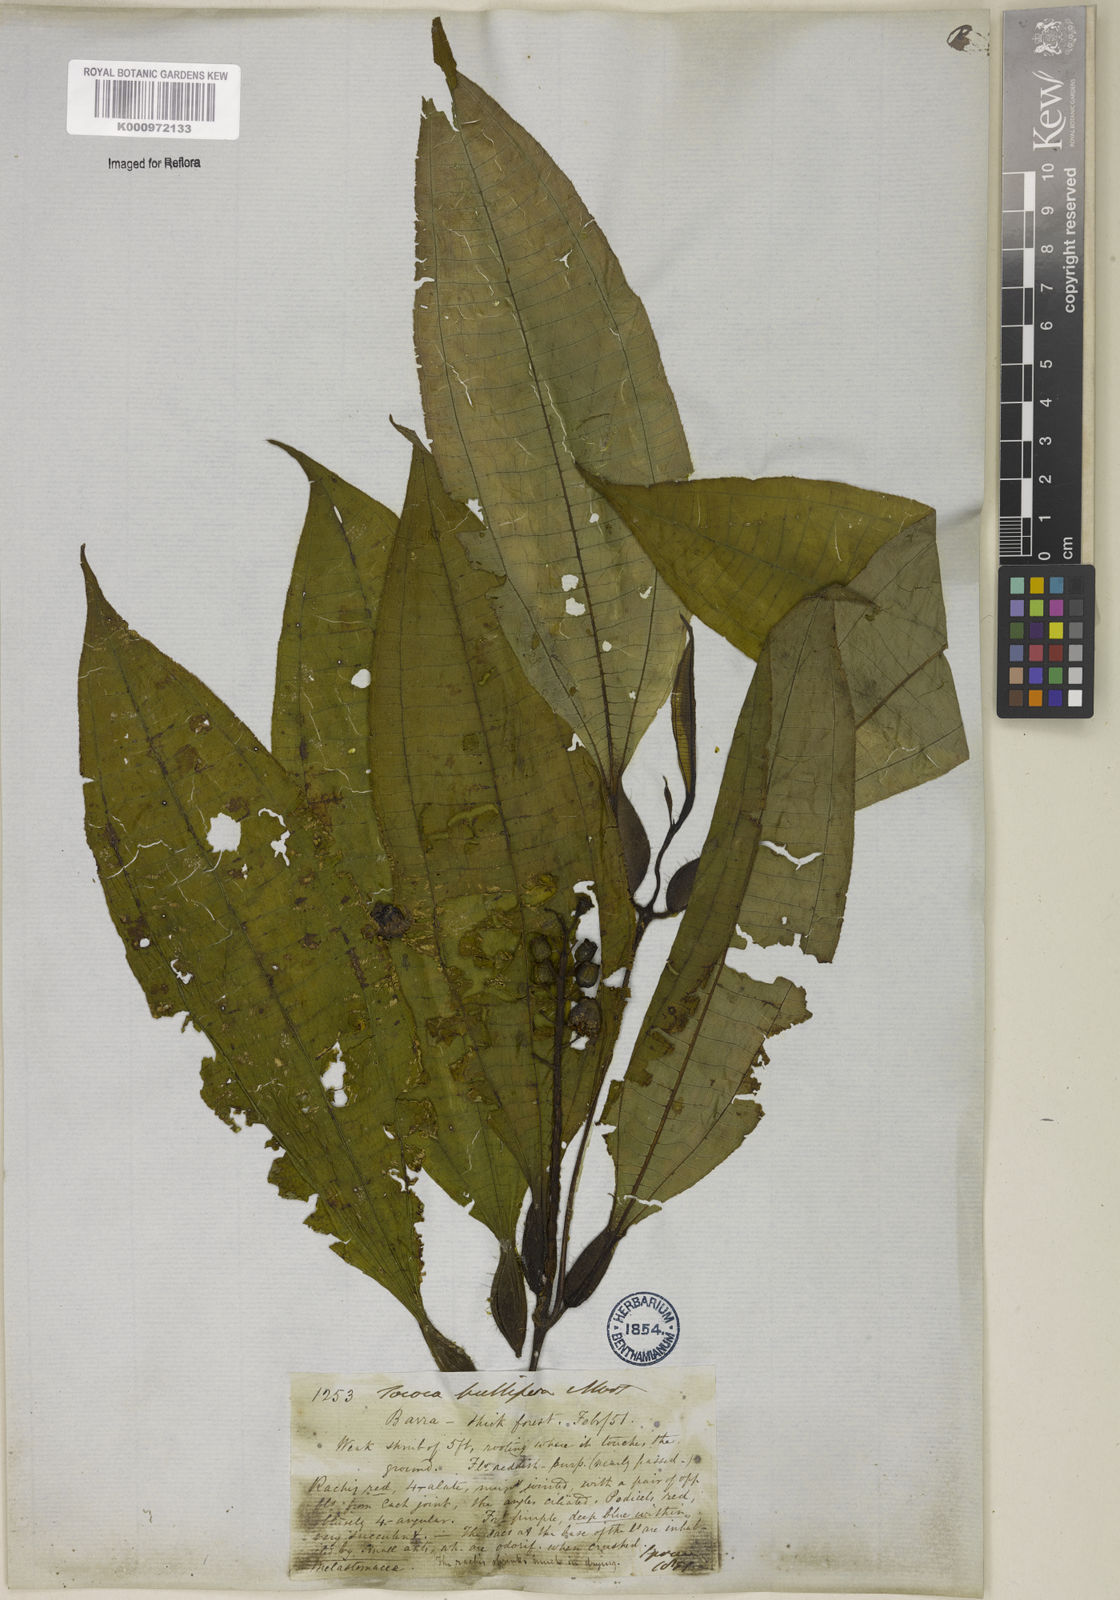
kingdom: Plantae
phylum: Tracheophyta
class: Magnoliopsida
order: Myrtales
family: Melastomataceae
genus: Miconia
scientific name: Miconia bullifera
